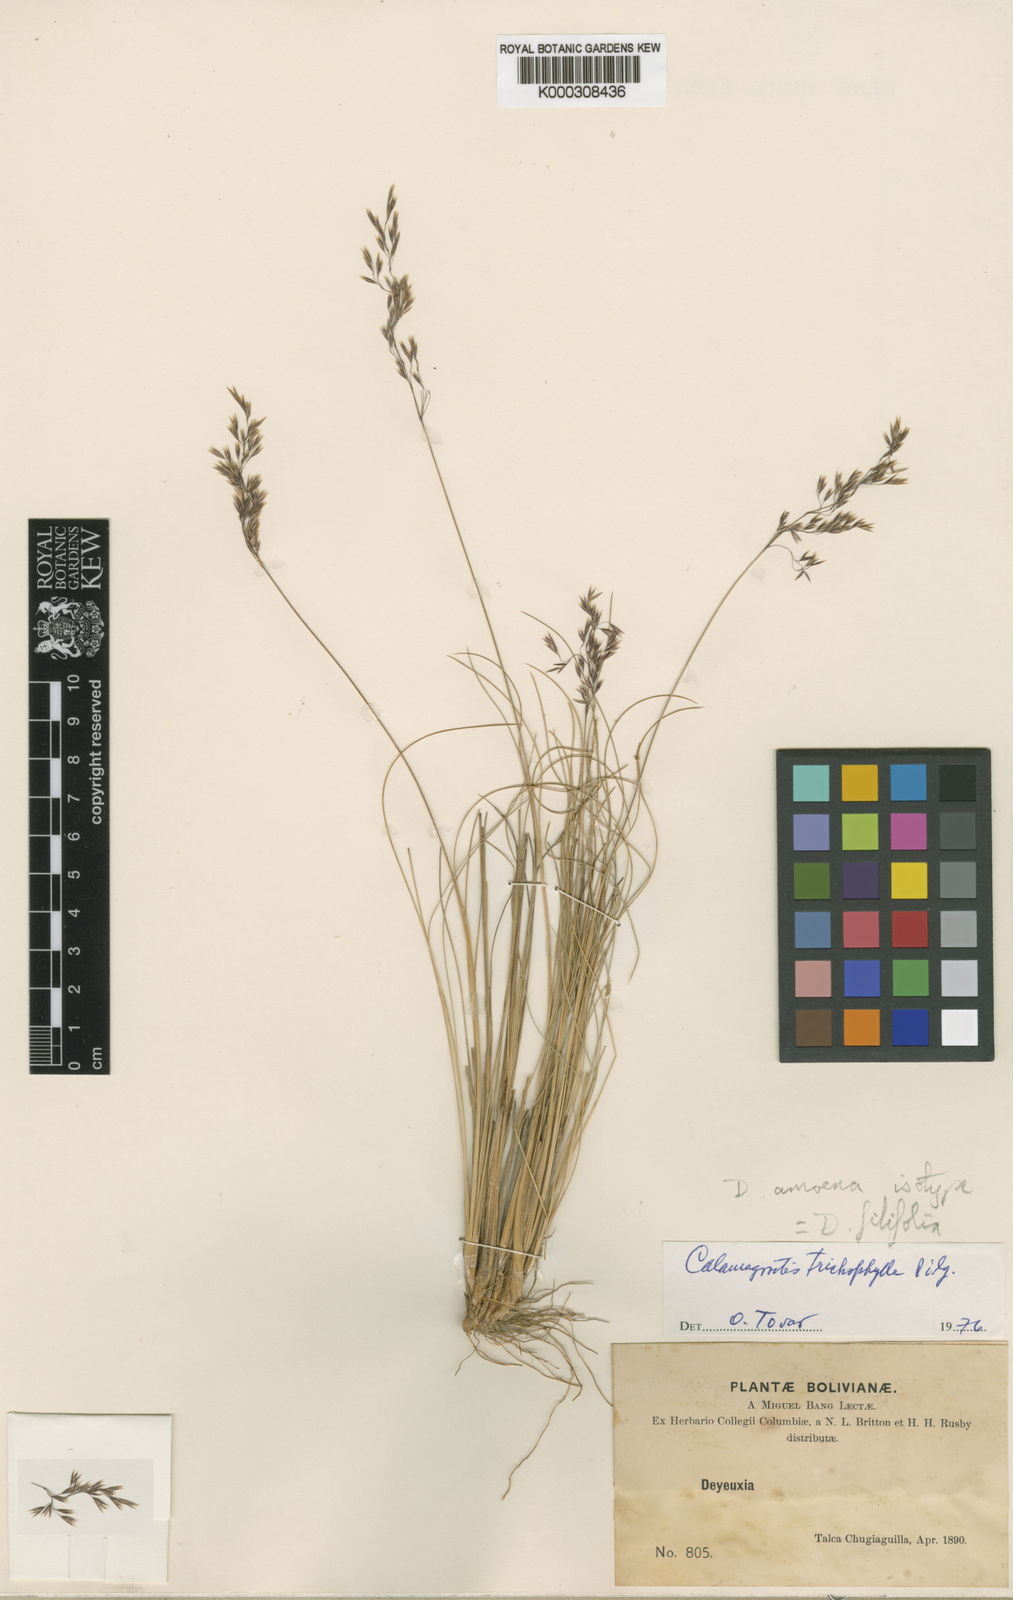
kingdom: Plantae
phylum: Tracheophyta
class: Liliopsida
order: Poales
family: Poaceae
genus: Cinnagrostis
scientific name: Cinnagrostis filifolia
